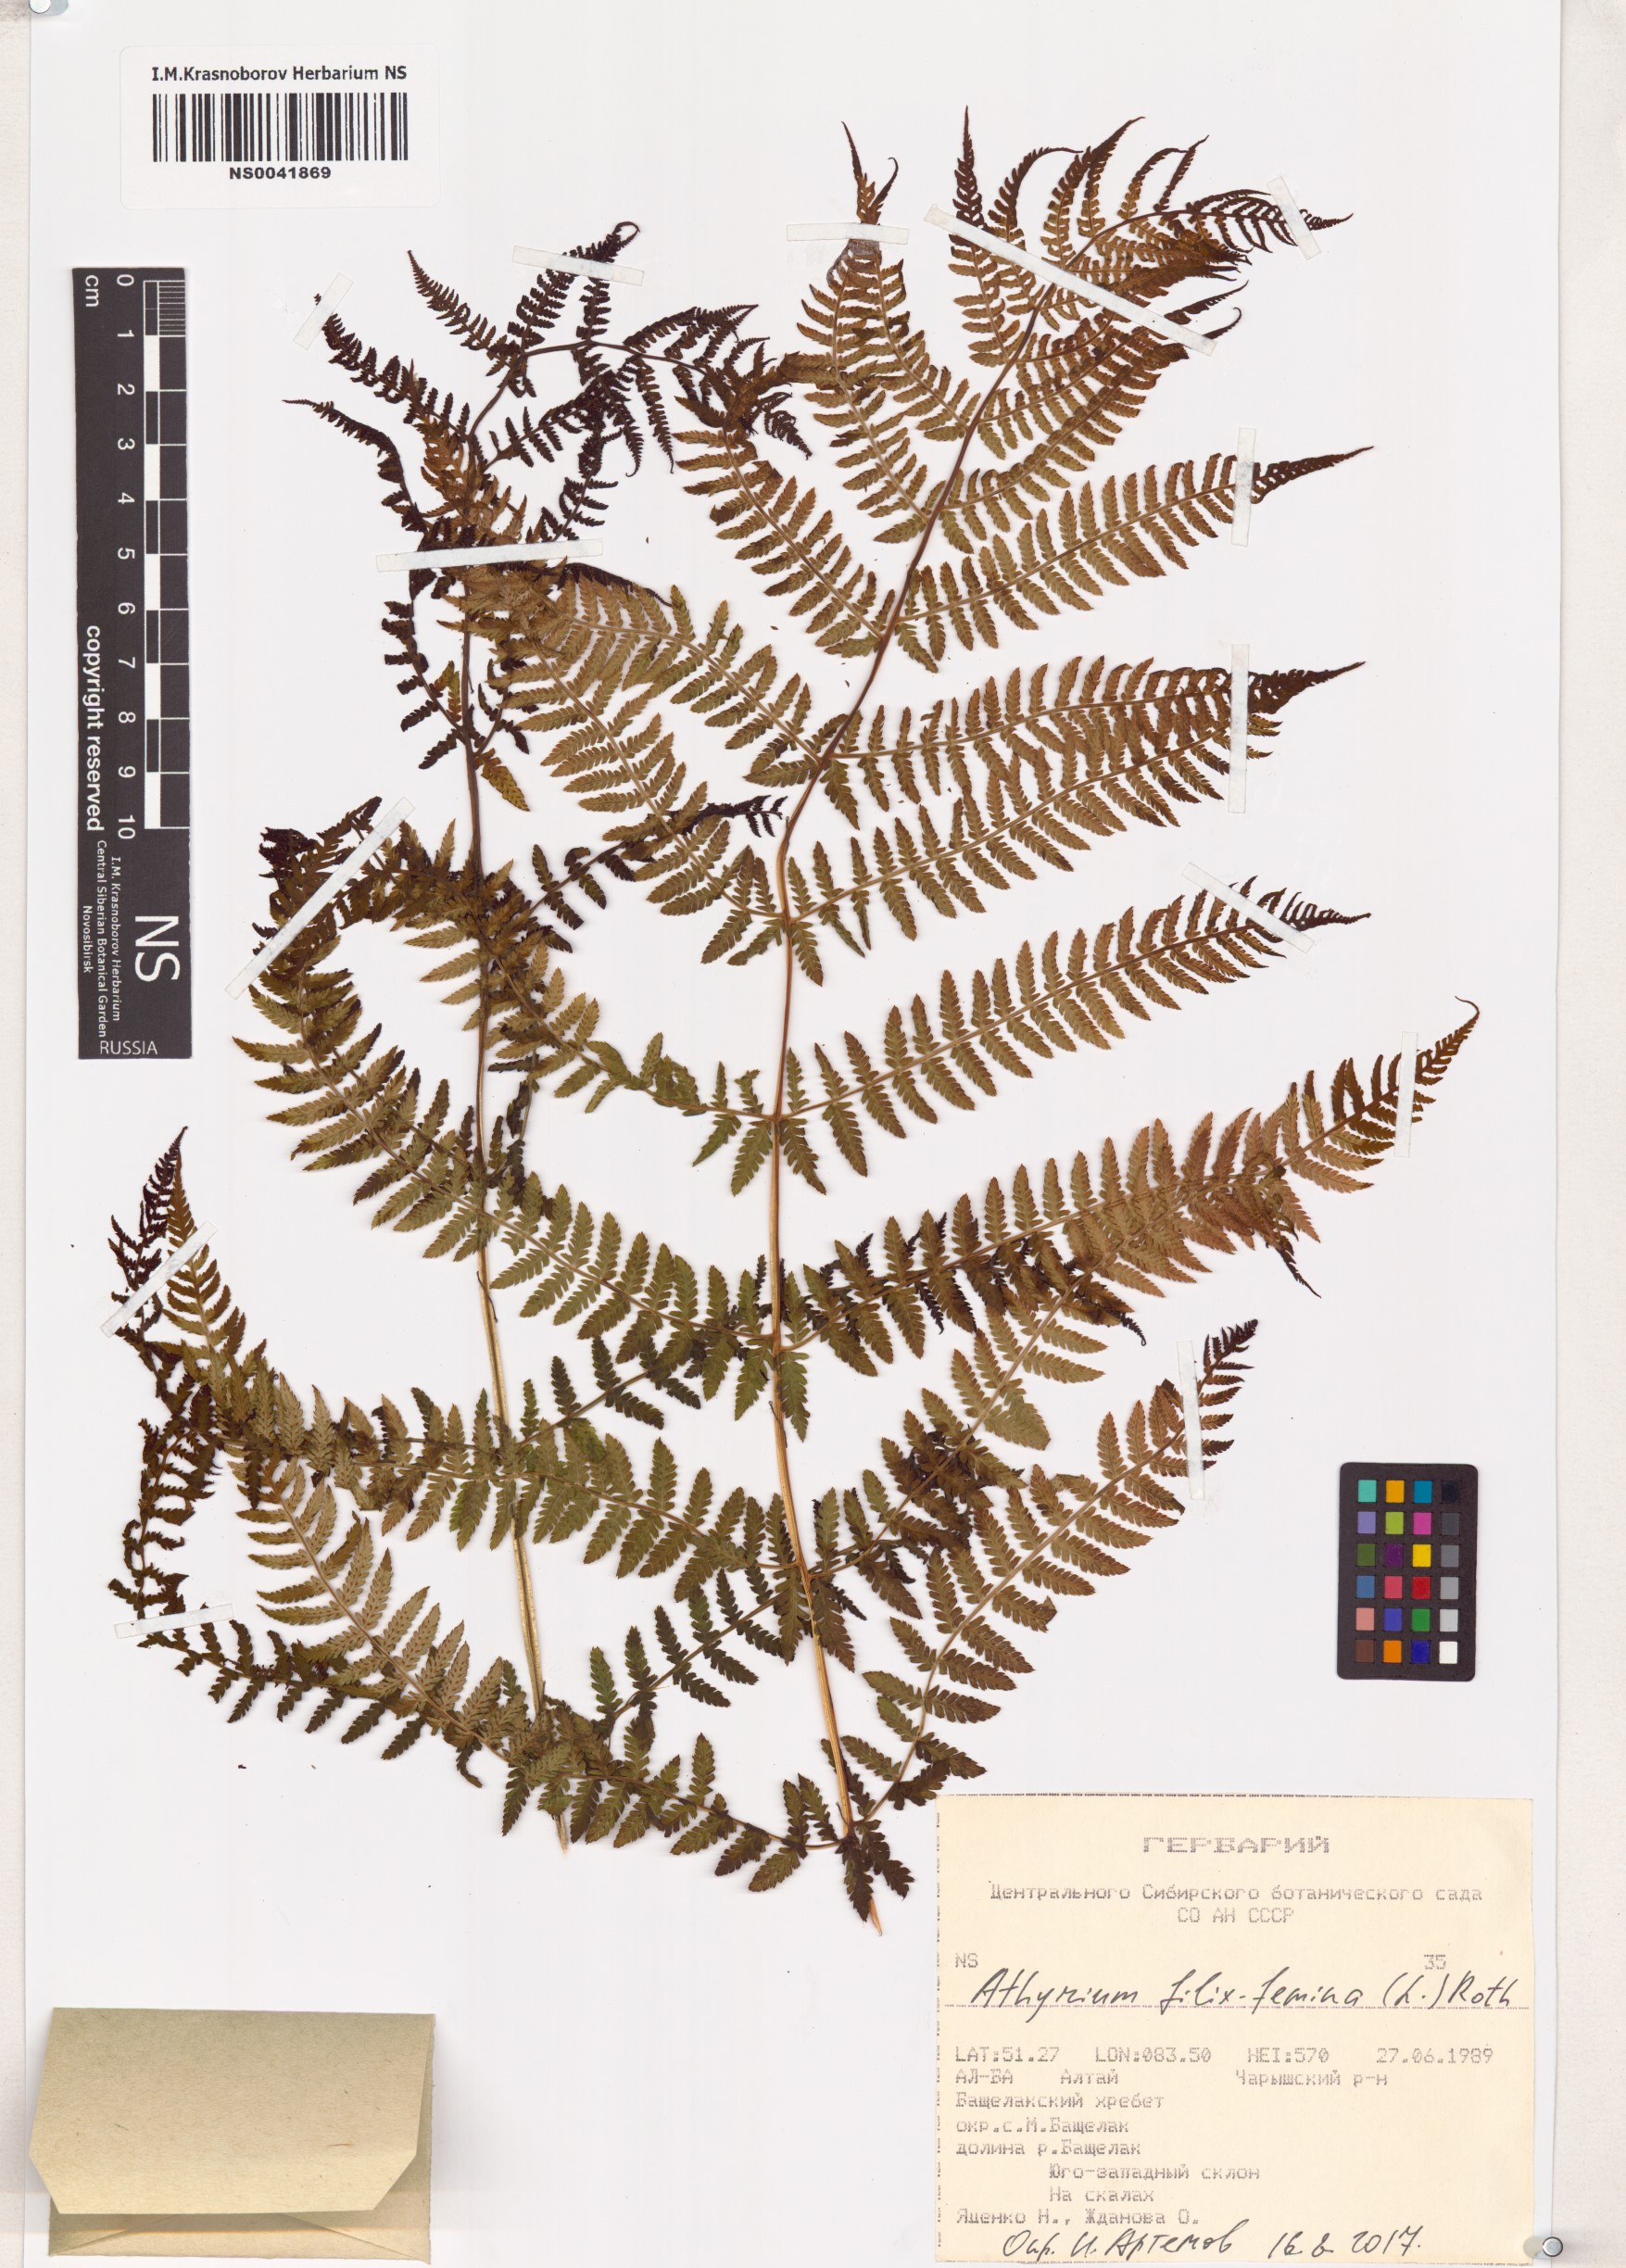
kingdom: Plantae
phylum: Tracheophyta
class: Polypodiopsida
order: Polypodiales
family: Athyriaceae
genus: Athyrium
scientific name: Athyrium filix-femina
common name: Lady fern
